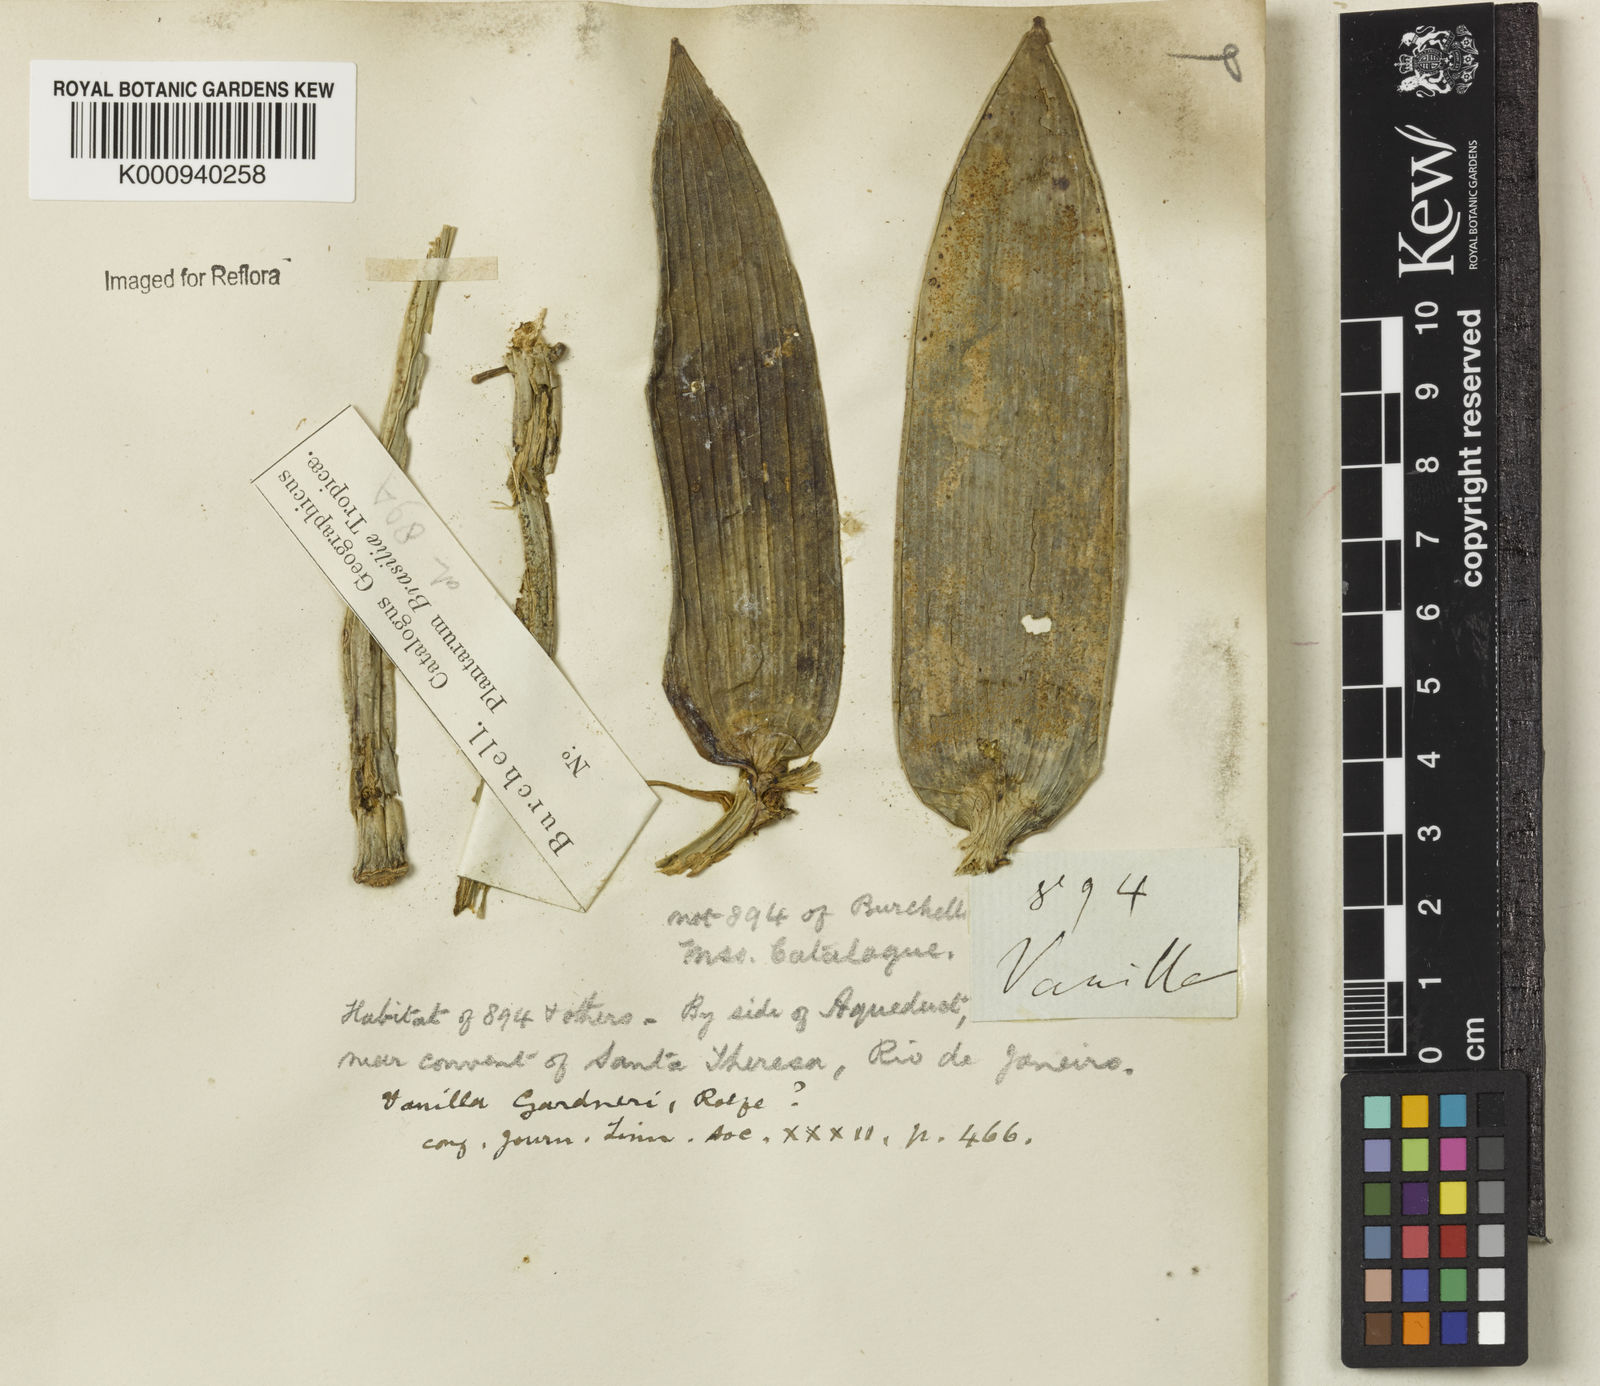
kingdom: Plantae
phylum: Tracheophyta
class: Liliopsida
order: Asparagales
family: Orchidaceae
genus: Vanilla
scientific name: Vanilla phaeantha
